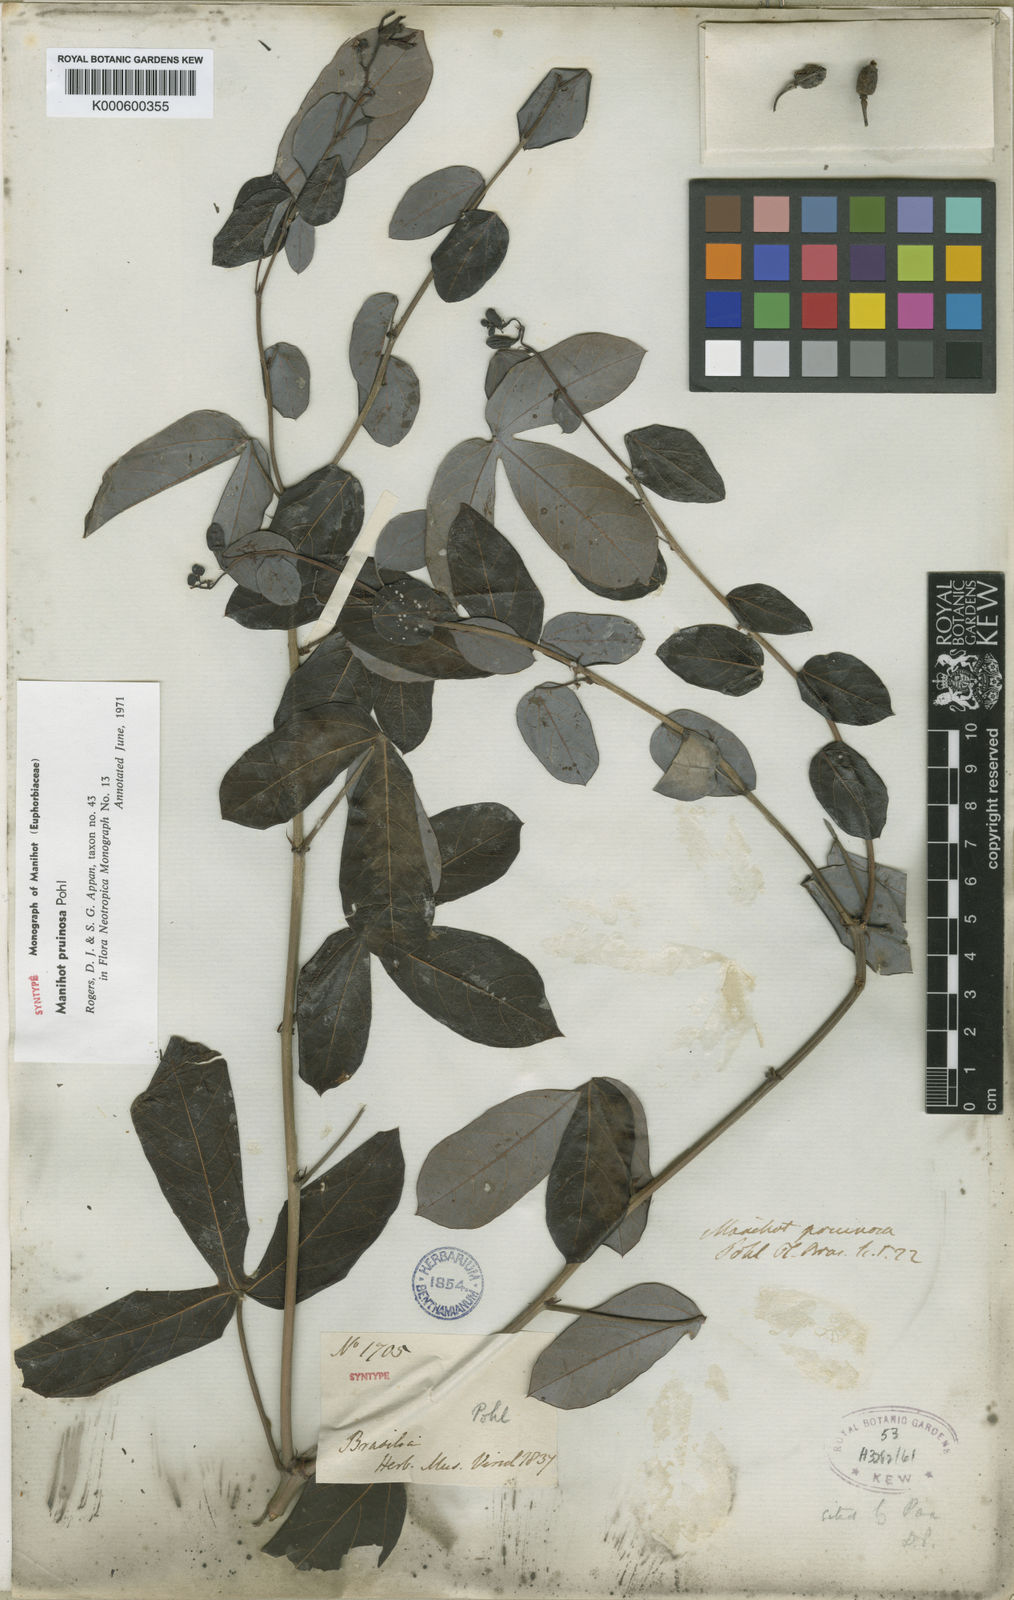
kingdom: Plantae
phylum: Tracheophyta
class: Magnoliopsida
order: Malpighiales
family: Euphorbiaceae
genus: Manihot
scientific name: Manihot pruinosa
